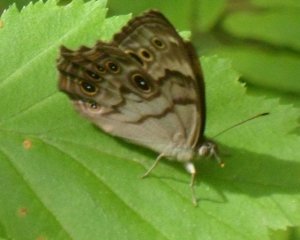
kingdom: Animalia
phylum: Arthropoda
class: Insecta
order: Lepidoptera
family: Nymphalidae
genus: Lethe
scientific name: Lethe anthedon
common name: Northern Pearly-Eye
